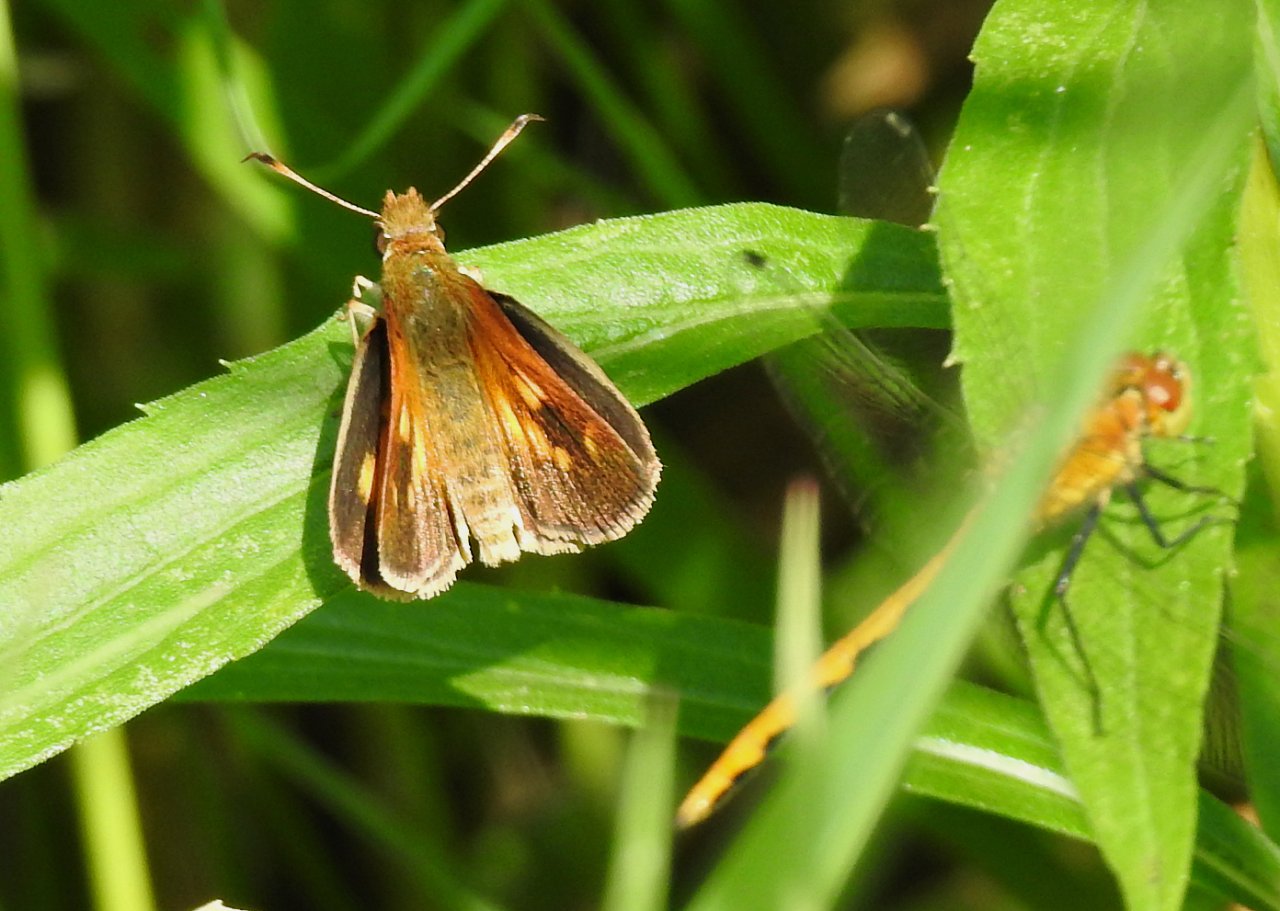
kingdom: Animalia
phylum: Arthropoda
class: Insecta
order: Lepidoptera
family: Hesperiidae
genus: Poanes
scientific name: Poanes viator
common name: Broad-winged Skipper
